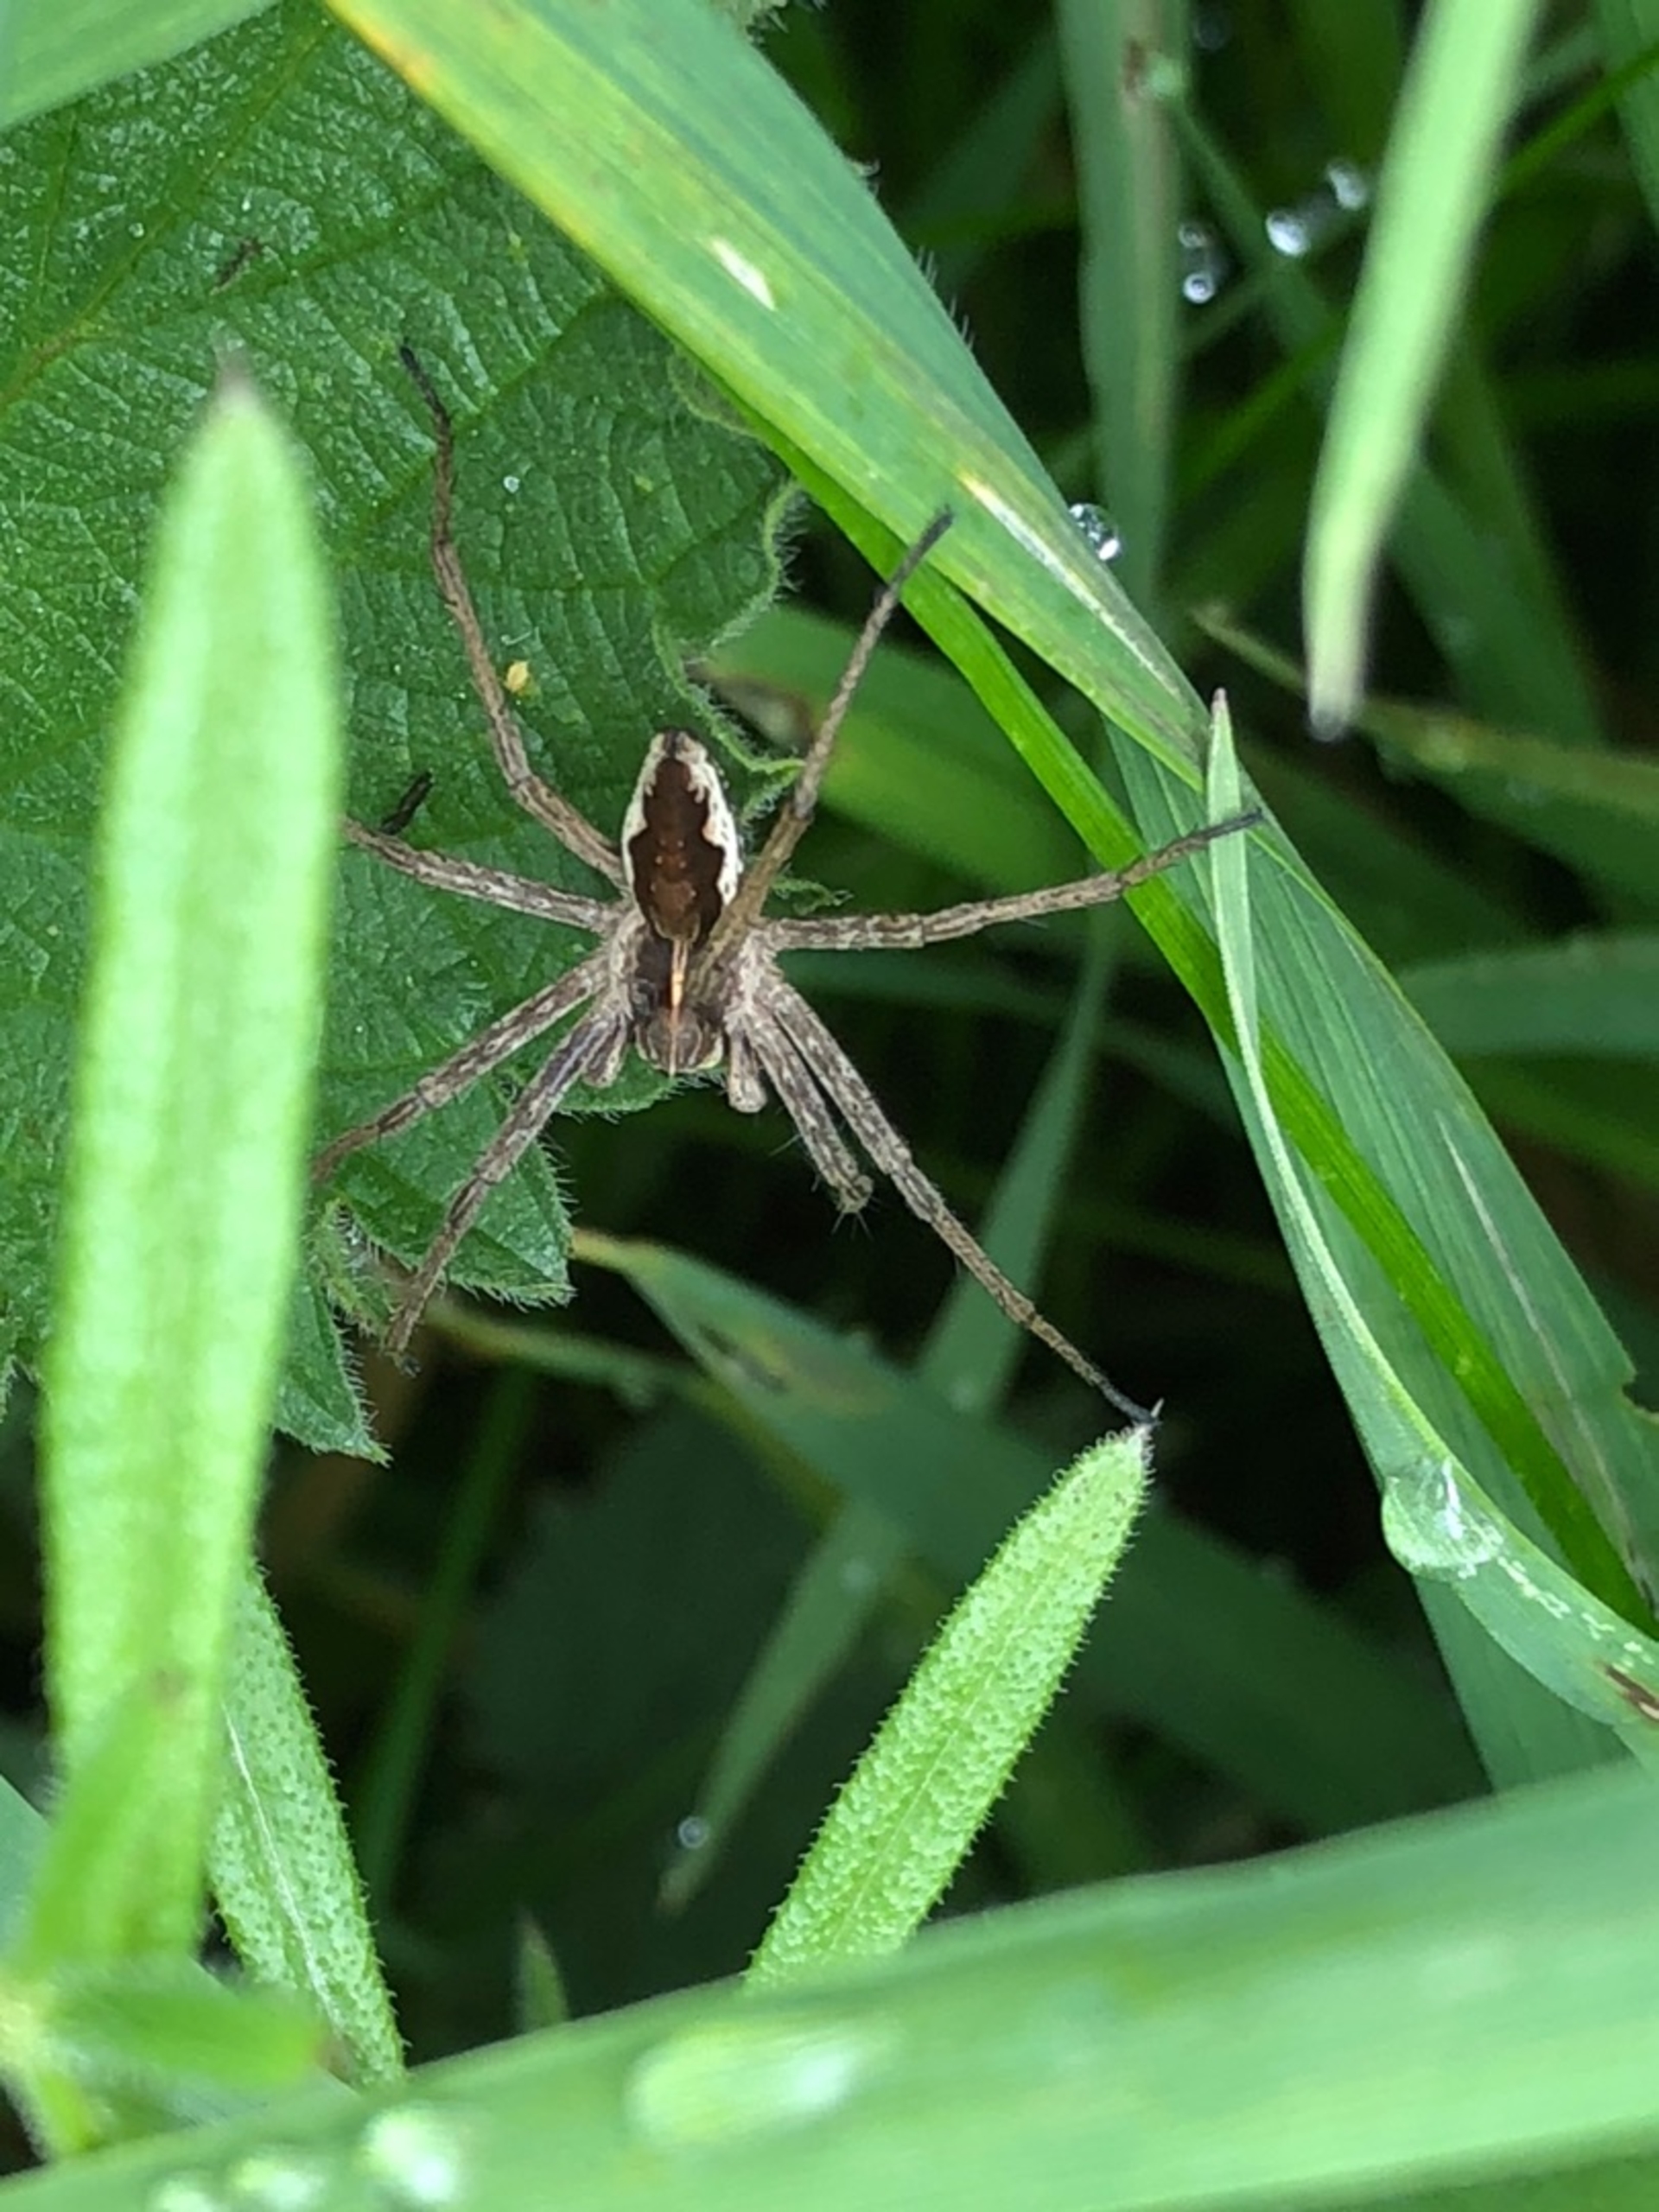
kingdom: Animalia
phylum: Arthropoda
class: Arachnida
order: Araneae
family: Pisauridae
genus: Pisaura
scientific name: Pisaura mirabilis
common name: Almindelig rovedderkop
